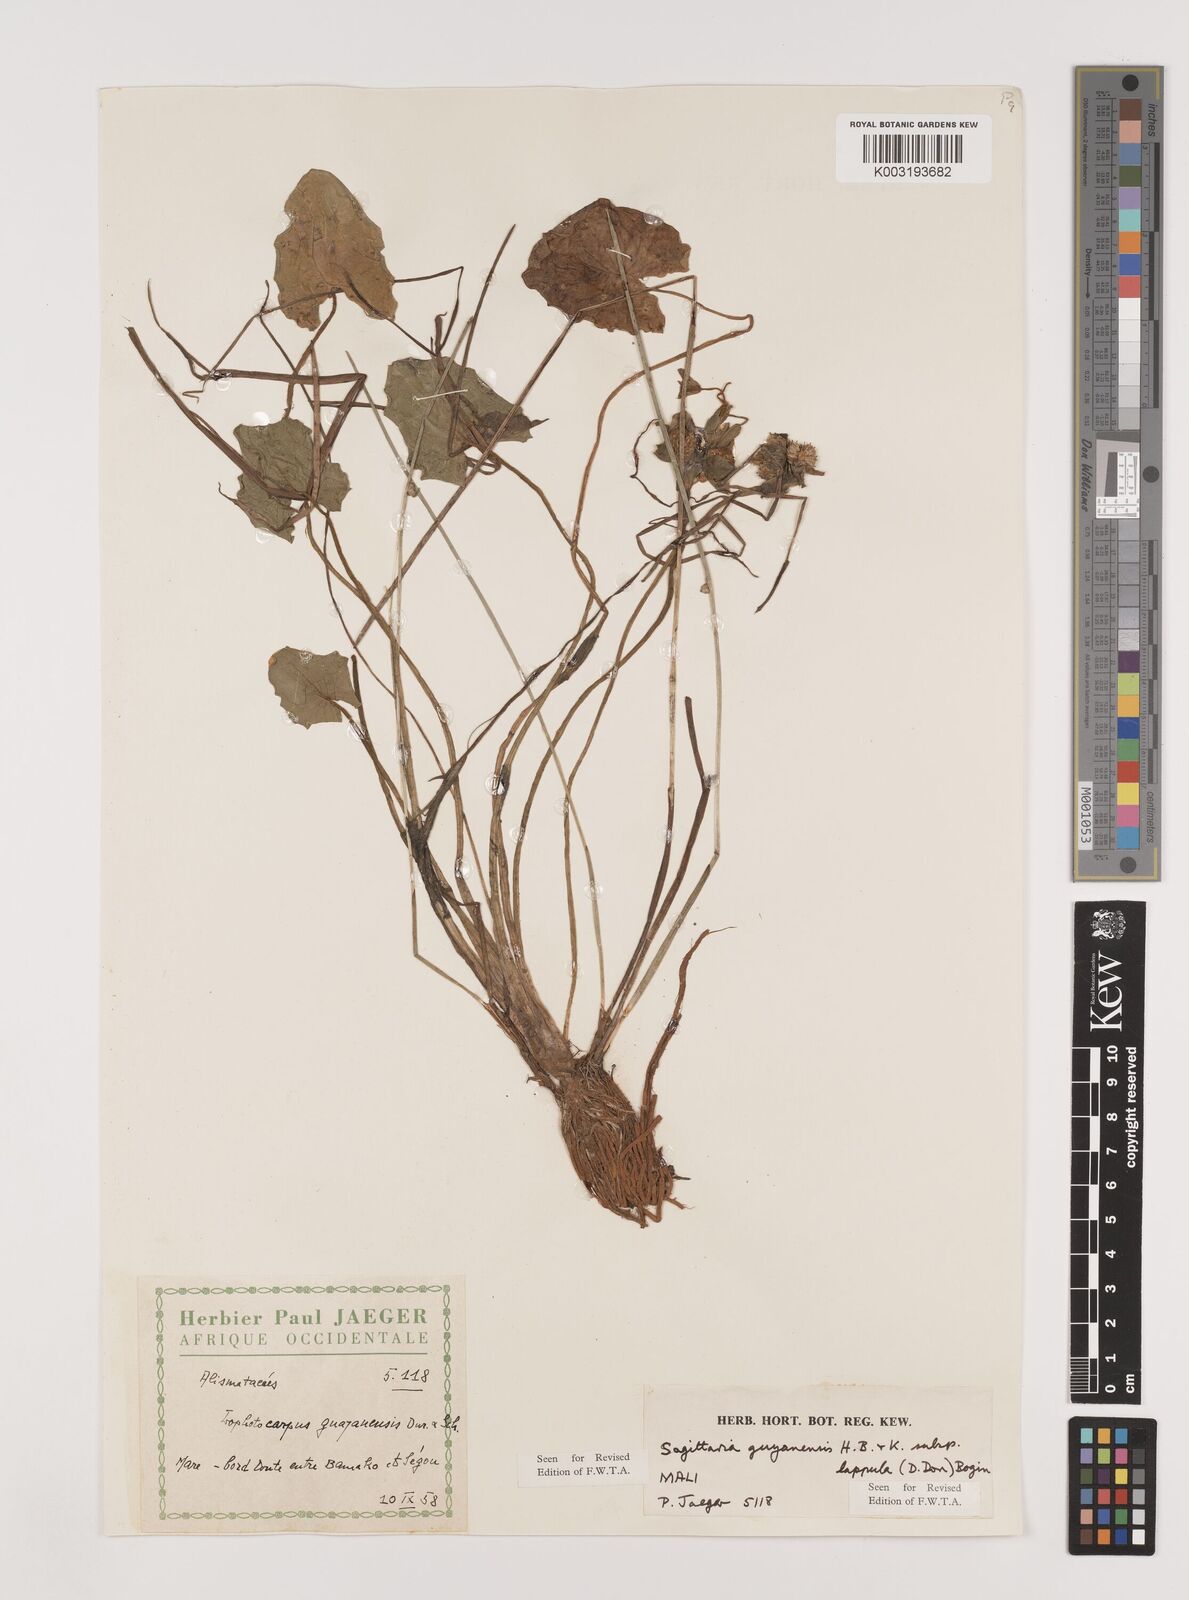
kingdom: Plantae
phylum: Tracheophyta
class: Liliopsida
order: Alismatales
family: Alismataceae
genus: Sagittaria
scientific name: Sagittaria guayanensis
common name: Guyanese arrowhead
